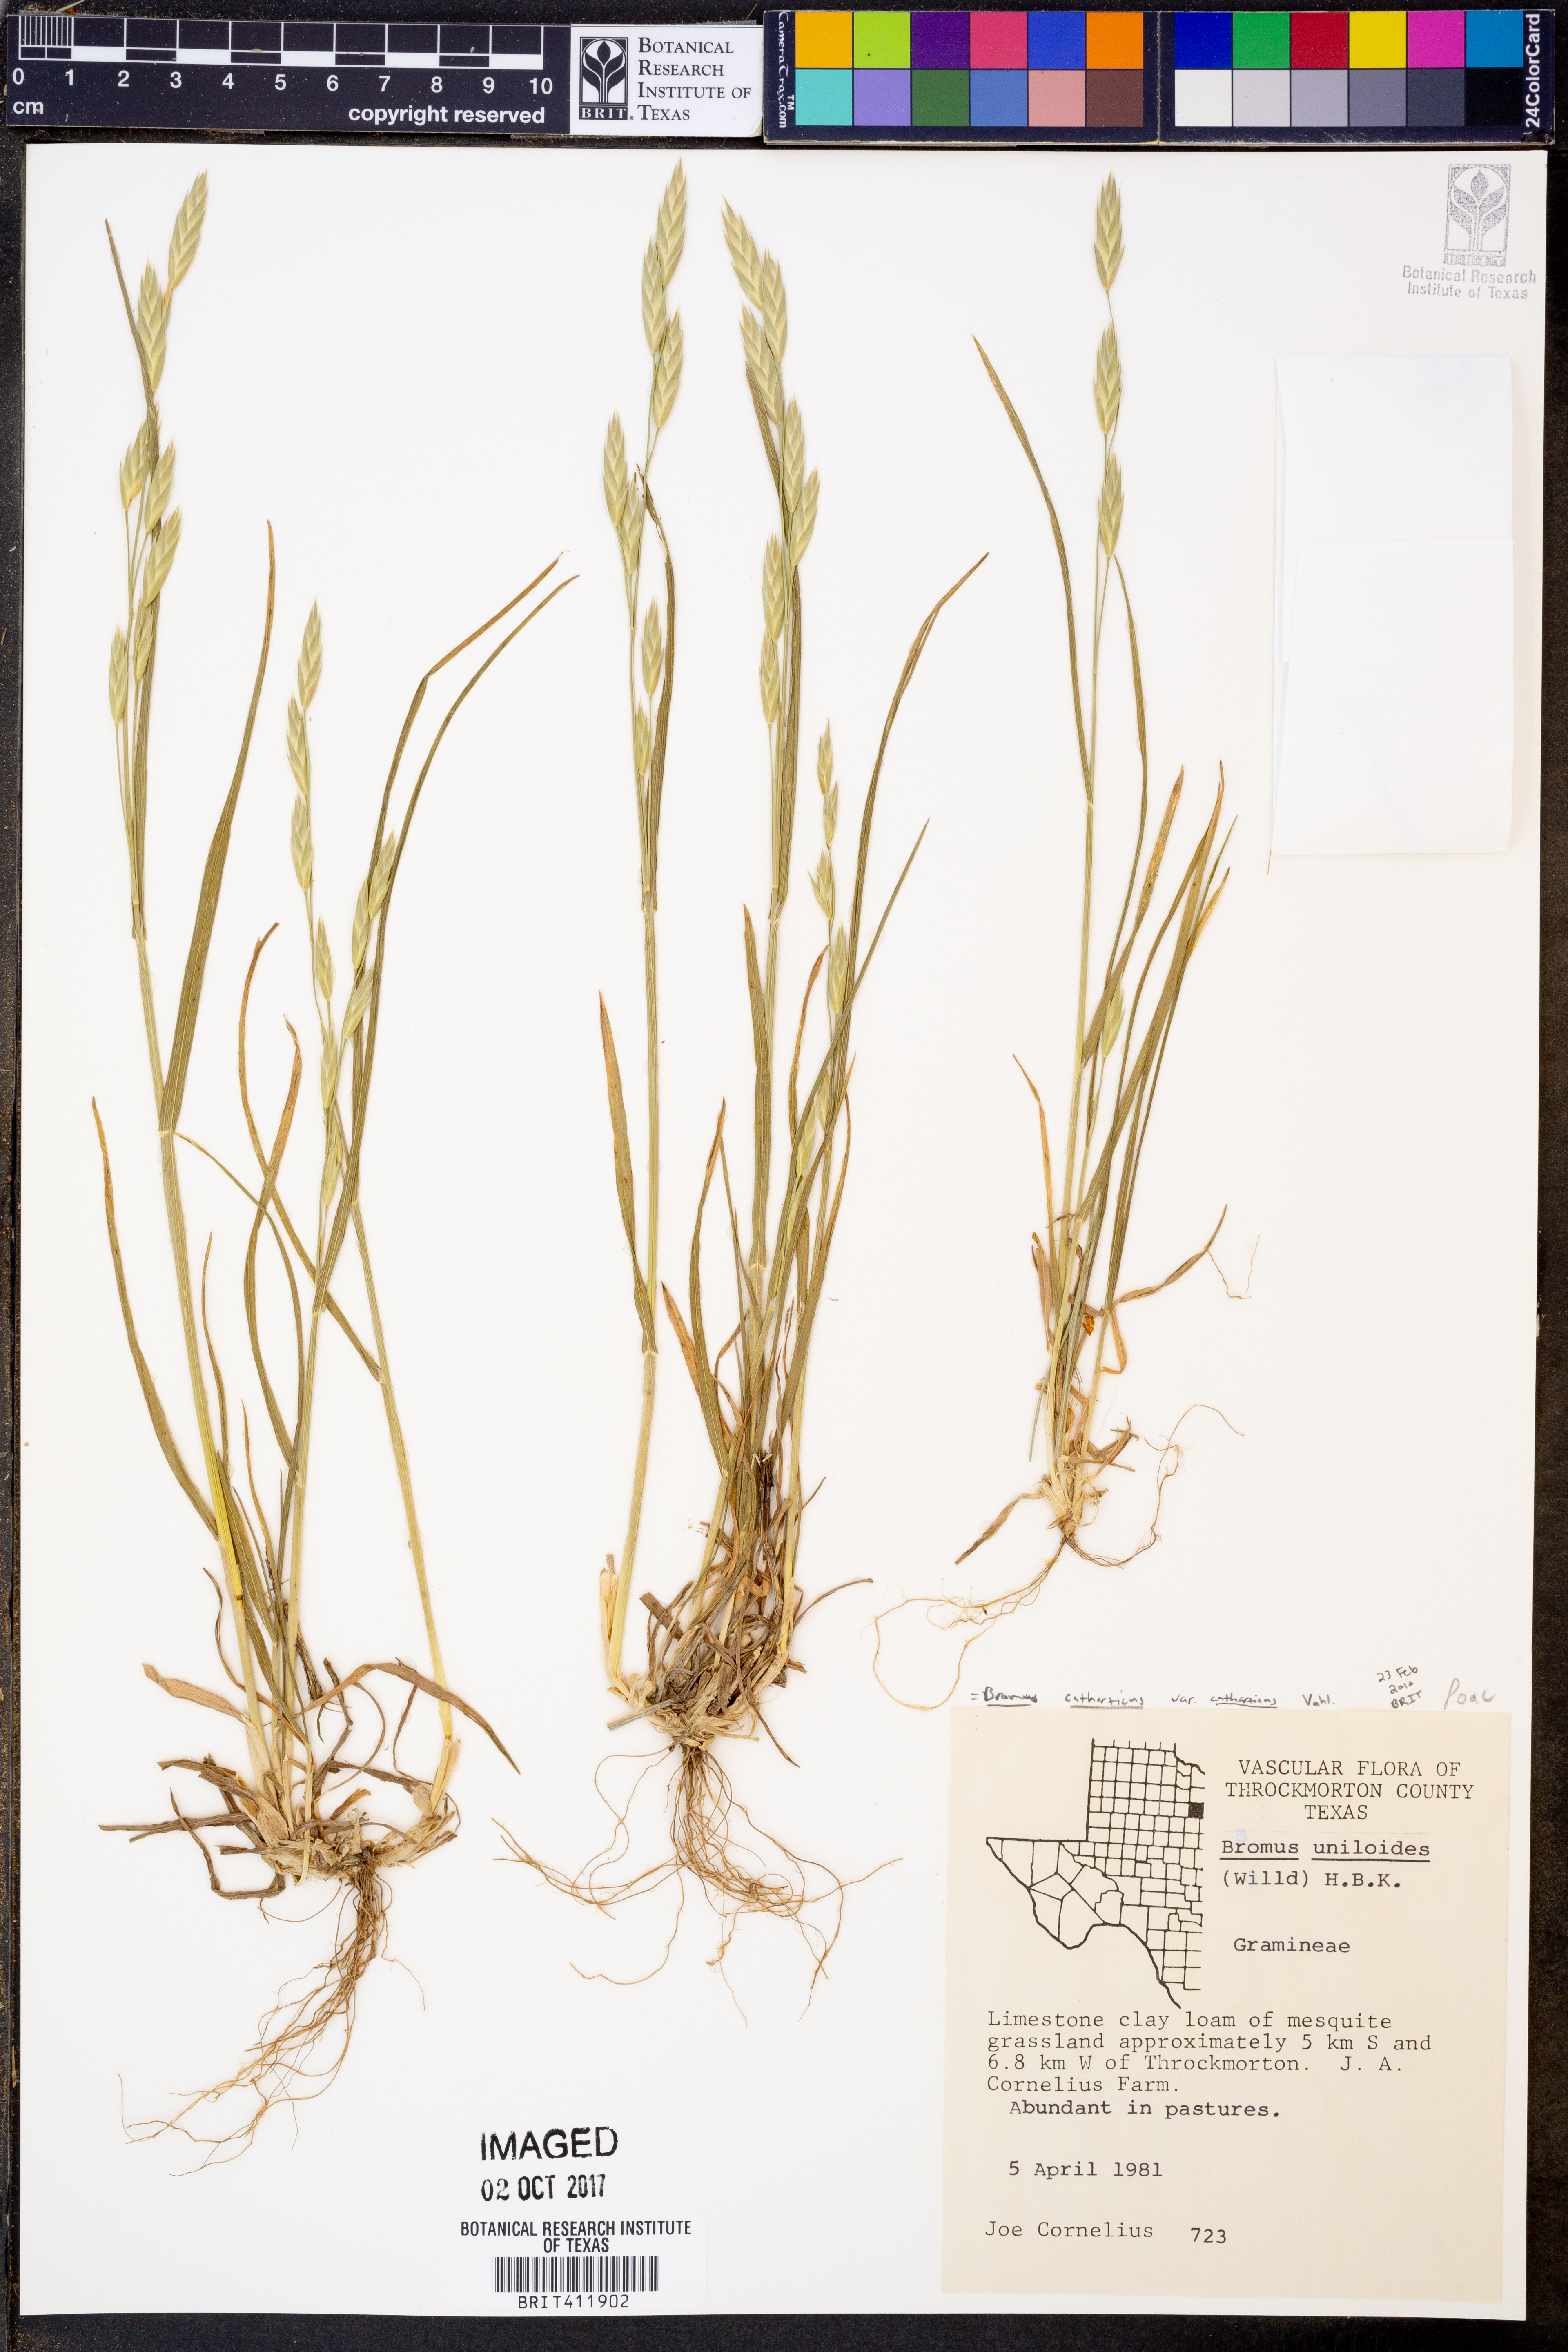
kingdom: Plantae
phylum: Tracheophyta
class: Liliopsida
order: Poales
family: Poaceae
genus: Bromus
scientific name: Bromus catharticus
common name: Rescuegrass
